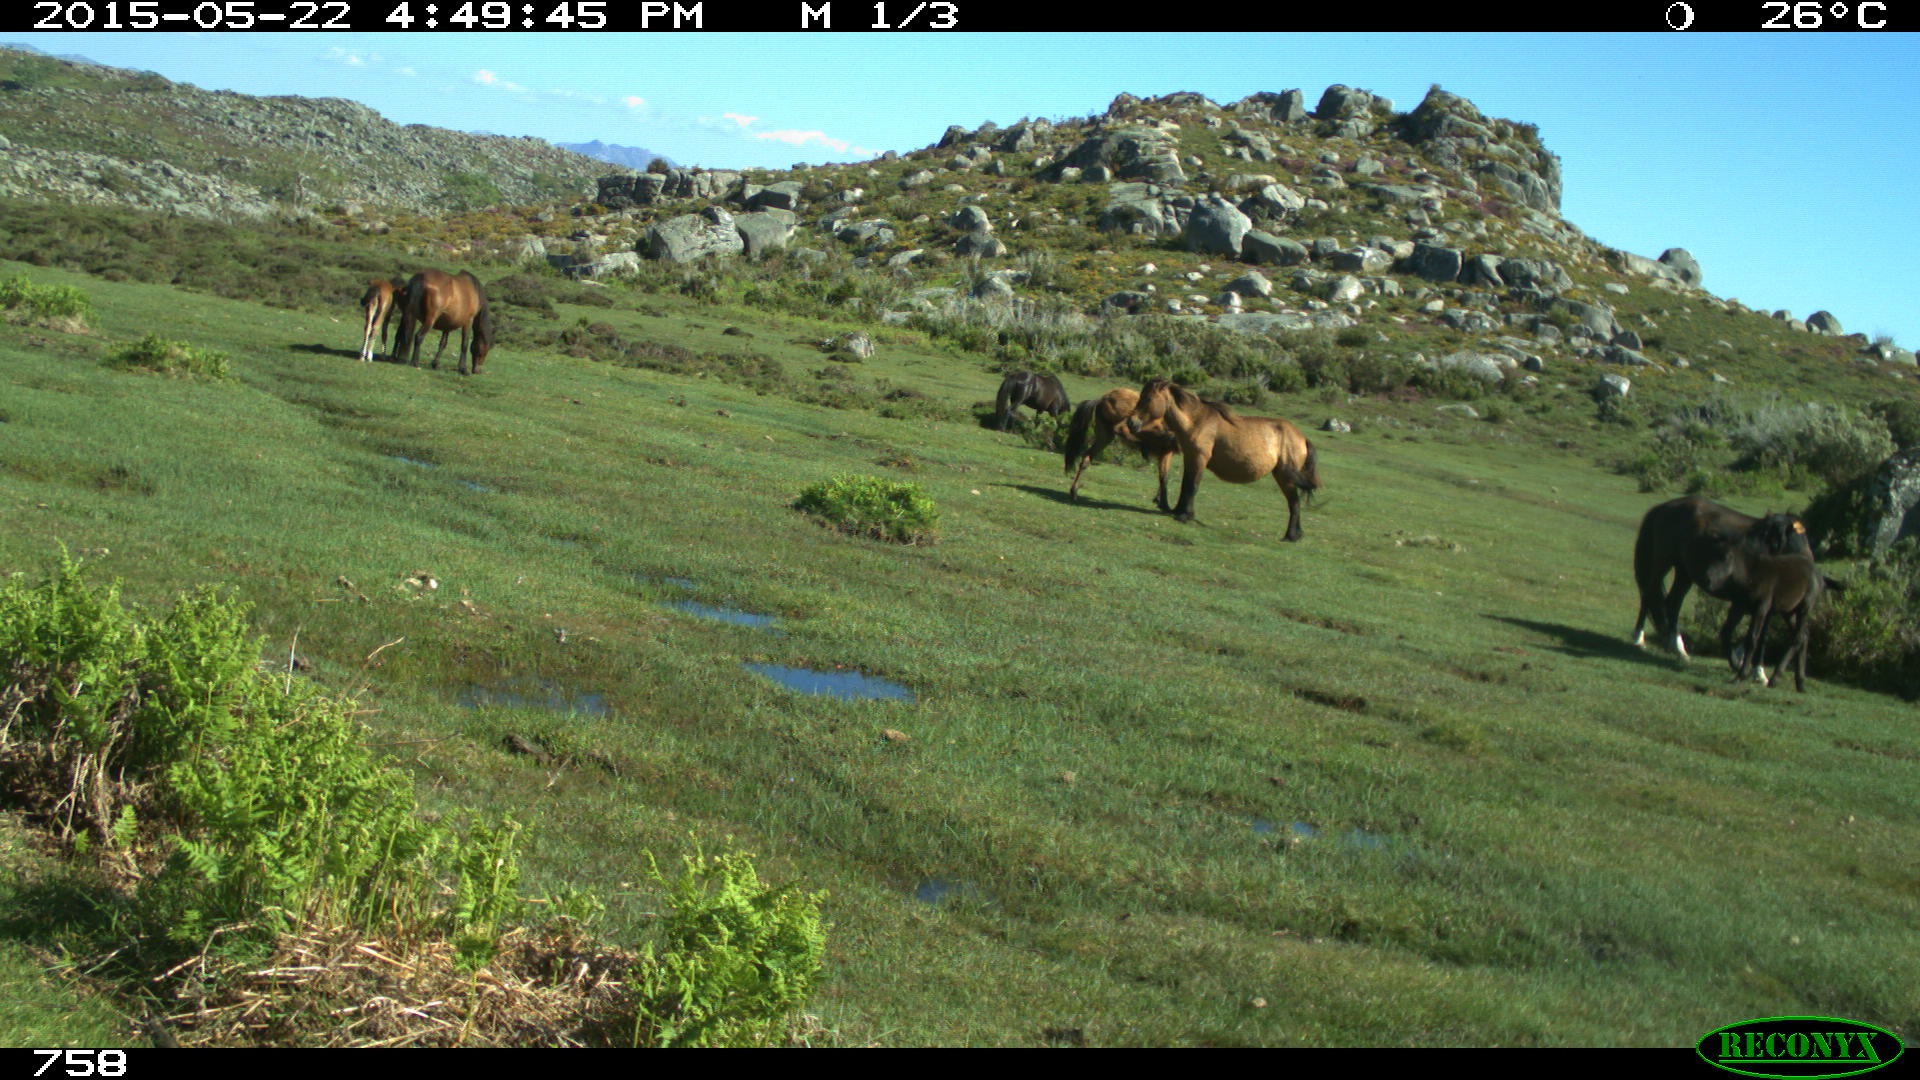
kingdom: Animalia
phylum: Chordata
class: Mammalia
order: Perissodactyla
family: Equidae
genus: Equus
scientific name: Equus caballus
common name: Horse
